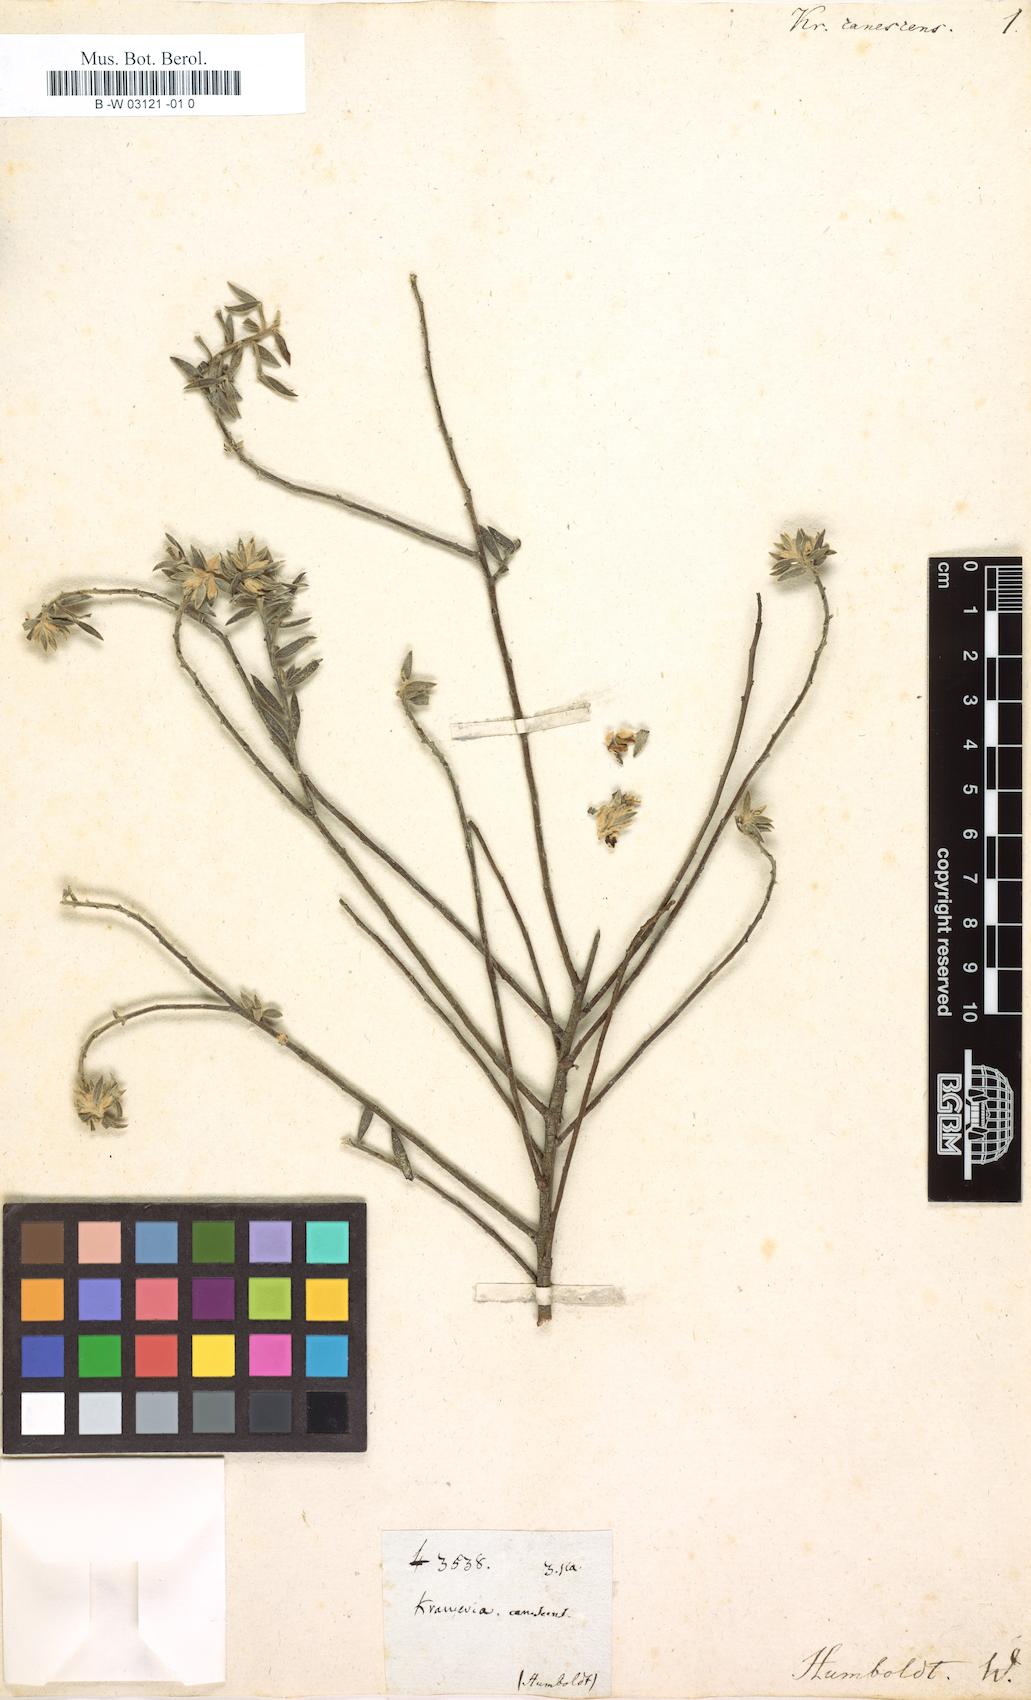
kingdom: Plantae
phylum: Tracheophyta
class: Magnoliopsida
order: Zygophyllales
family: Krameriaceae
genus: Krameria
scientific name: Krameria
